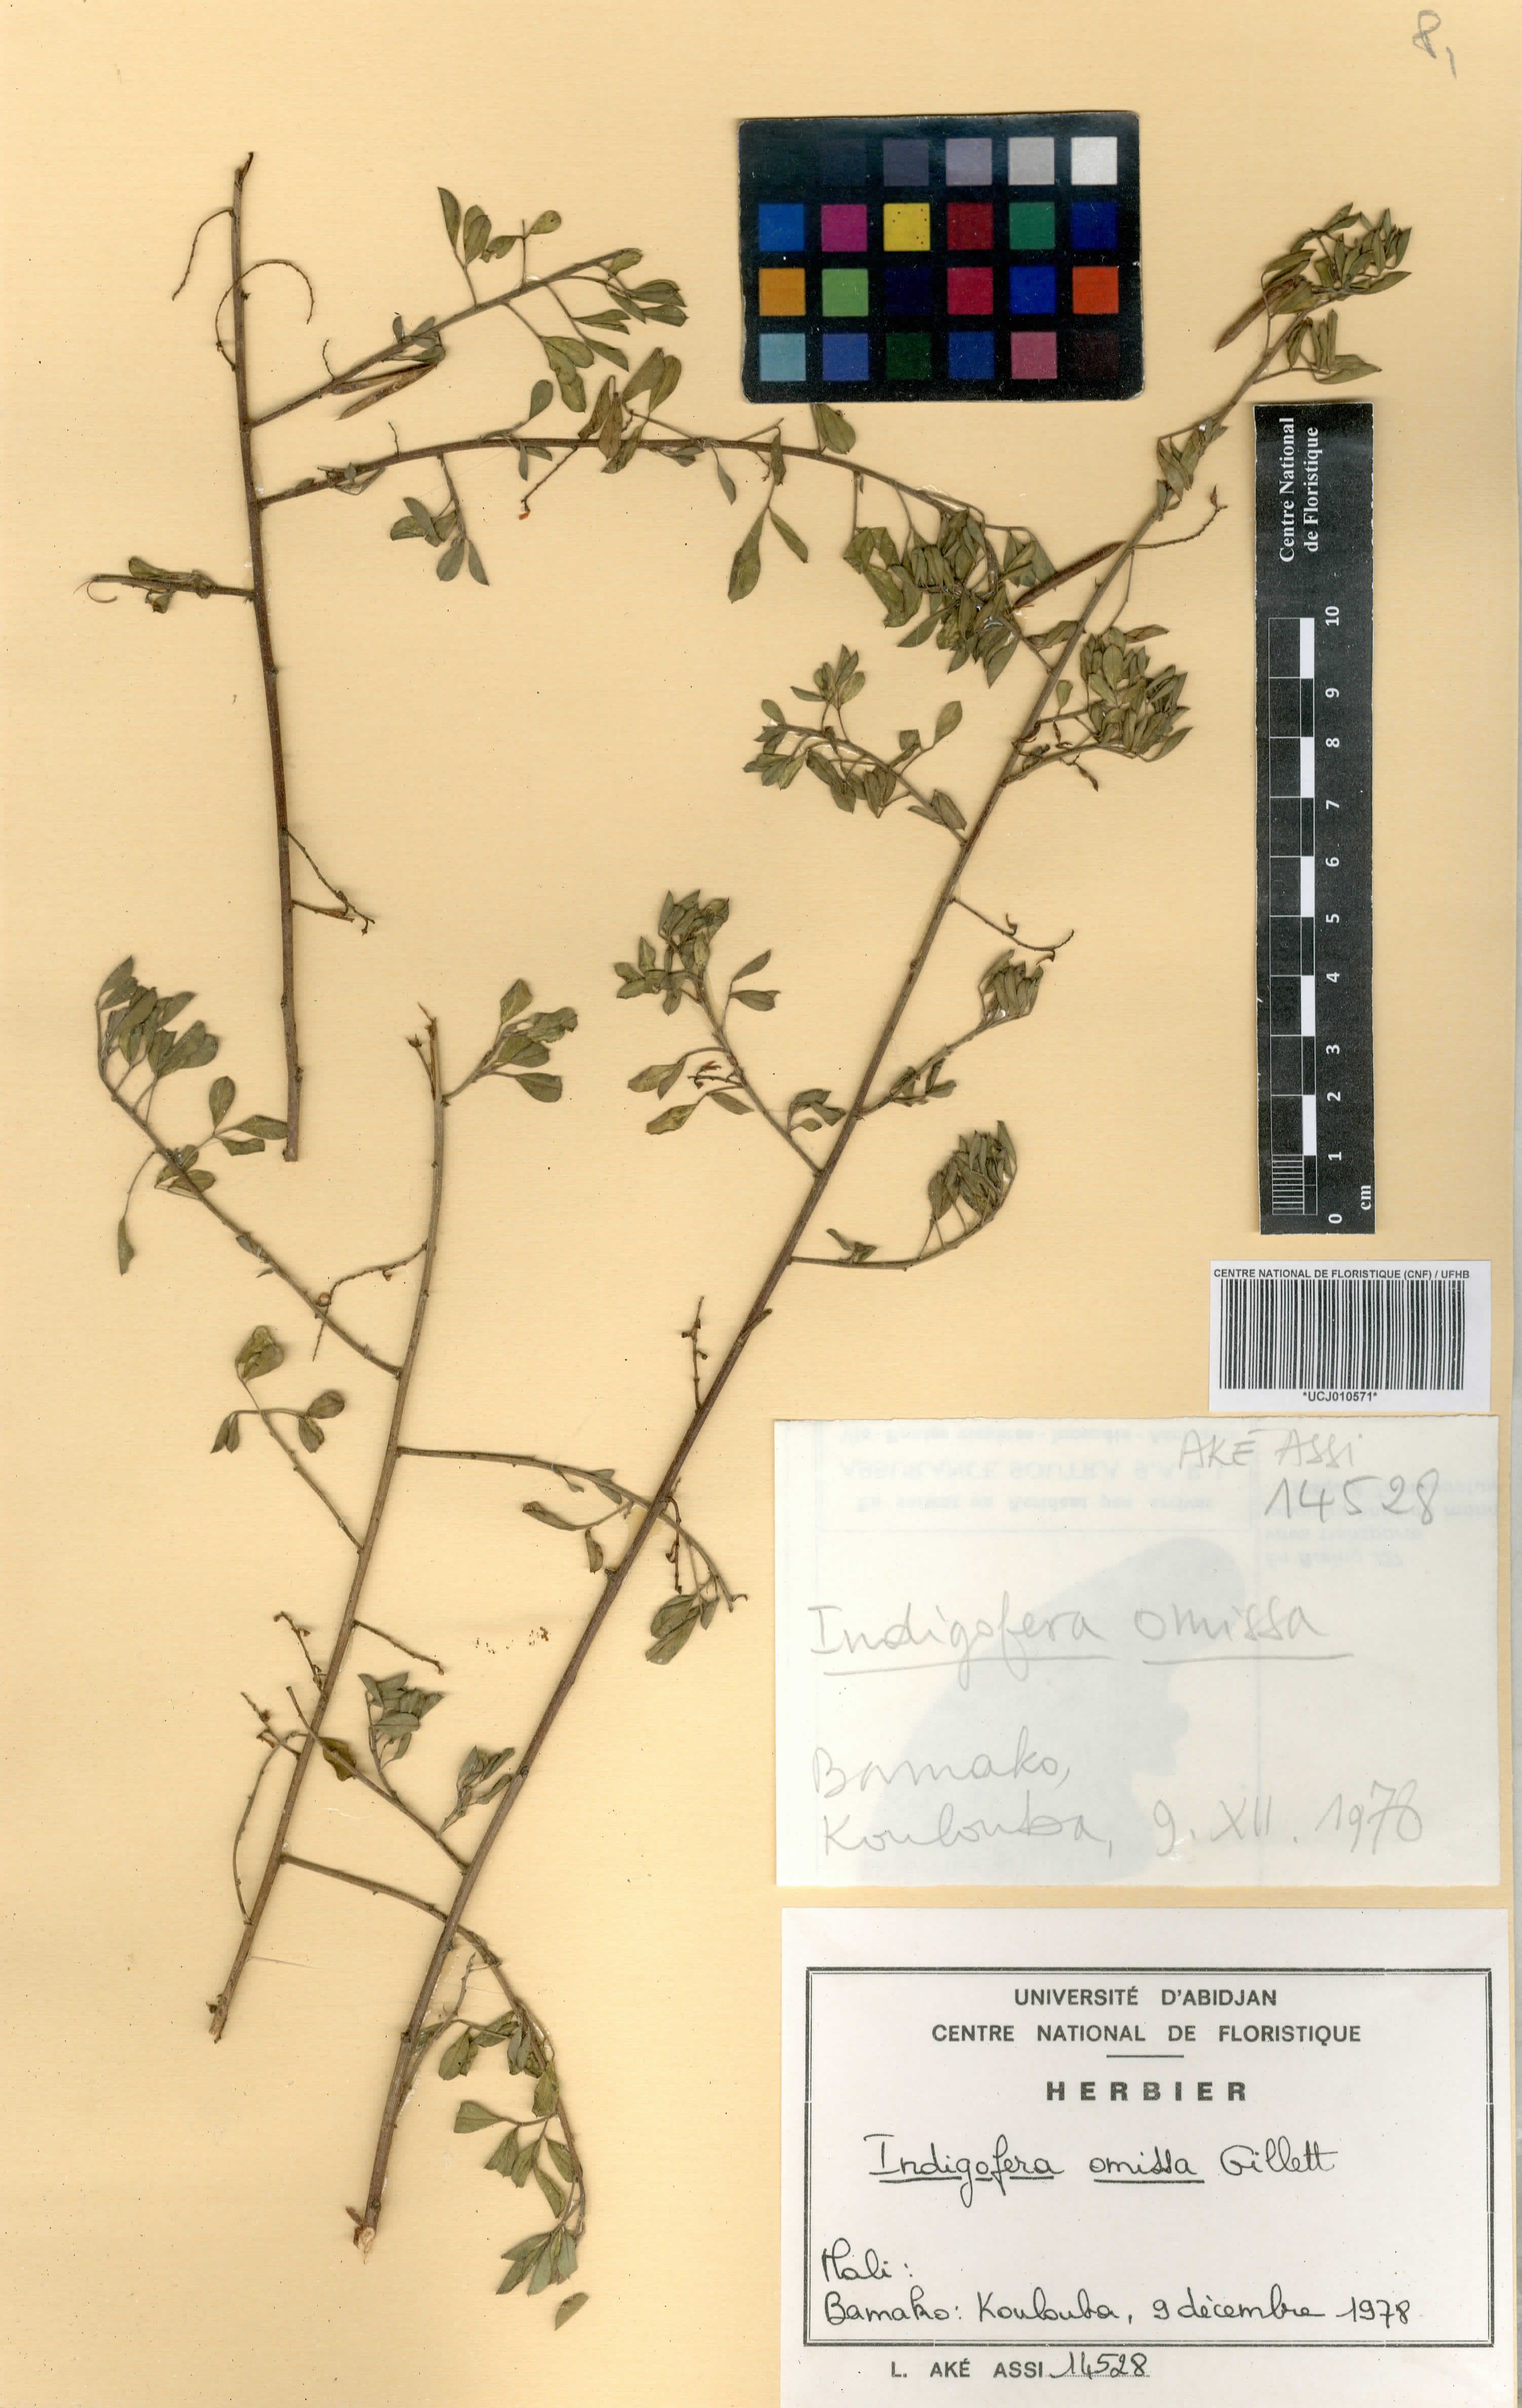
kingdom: Plantae
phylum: Tracheophyta
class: Magnoliopsida
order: Fabales
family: Fabaceae
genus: Indigofera
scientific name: Indigofera omissa
